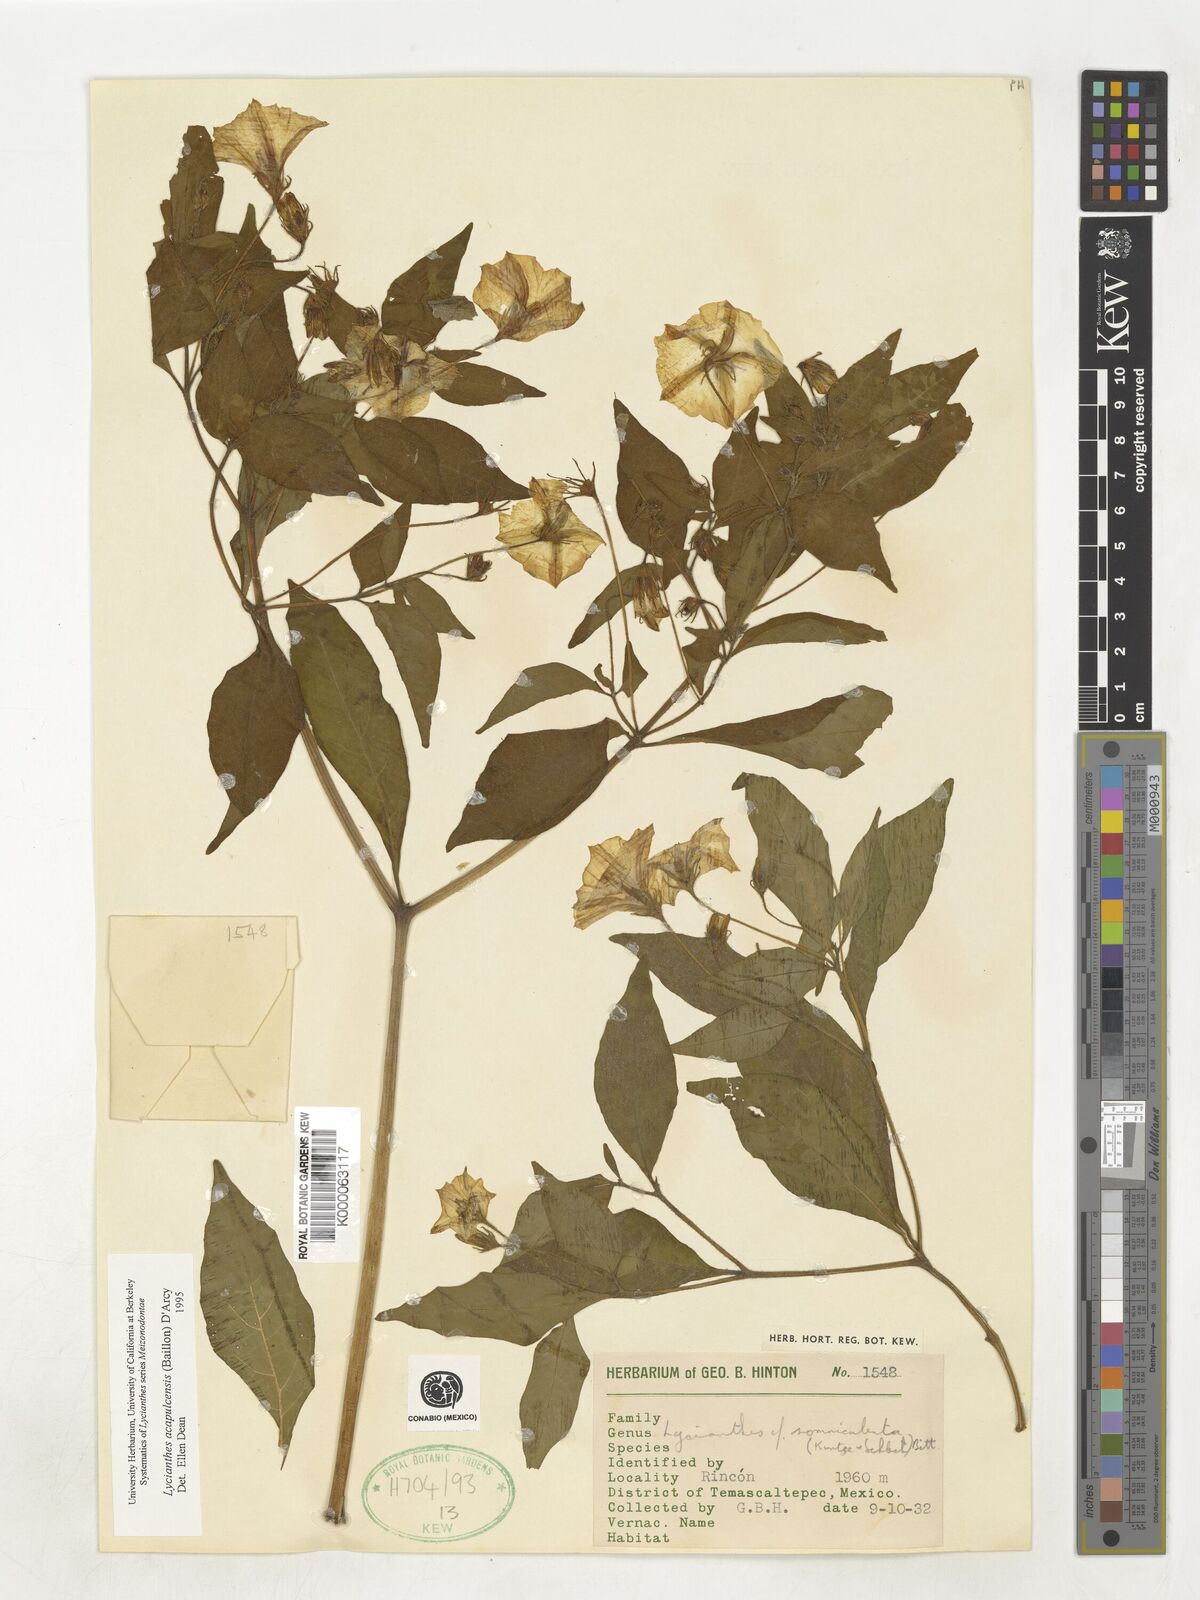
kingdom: Plantae
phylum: Tracheophyta
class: Magnoliopsida
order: Solanales
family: Solanaceae
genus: Lycianthes
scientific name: Lycianthes acapulcensis
